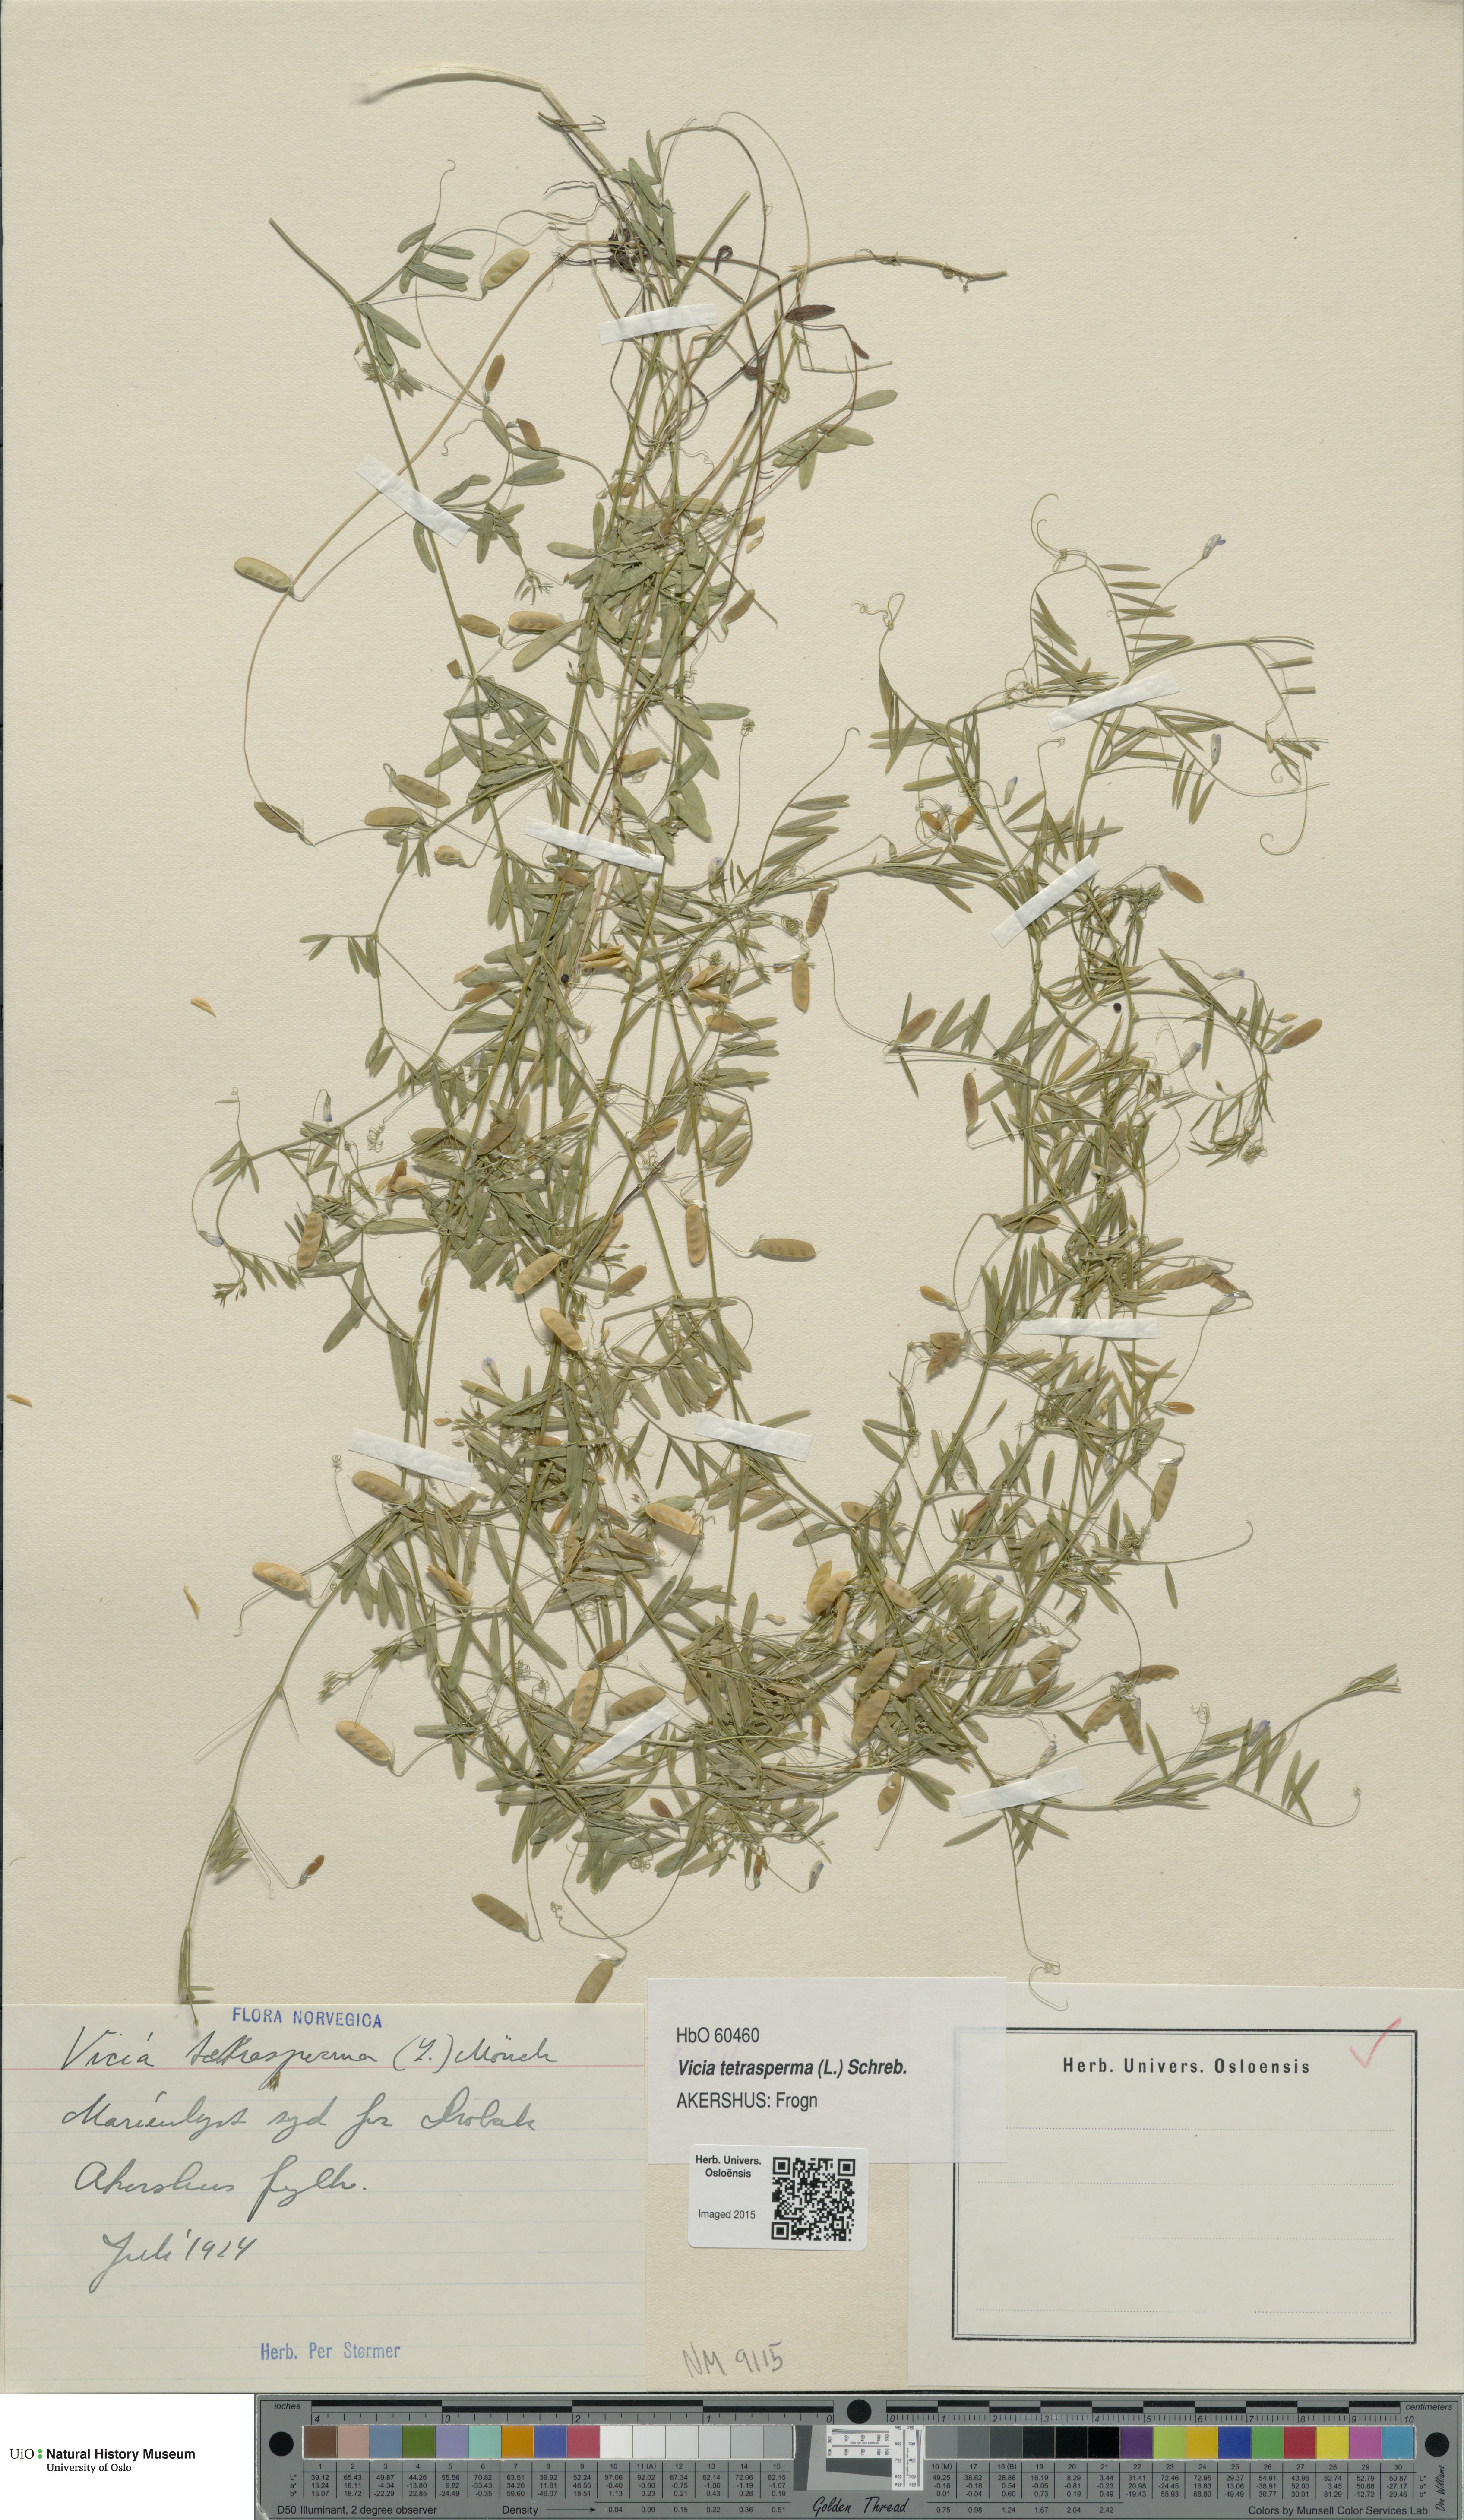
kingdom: Plantae
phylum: Tracheophyta
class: Magnoliopsida
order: Fabales
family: Fabaceae
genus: Vicia
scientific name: Vicia tetrasperma
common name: Smooth tare
